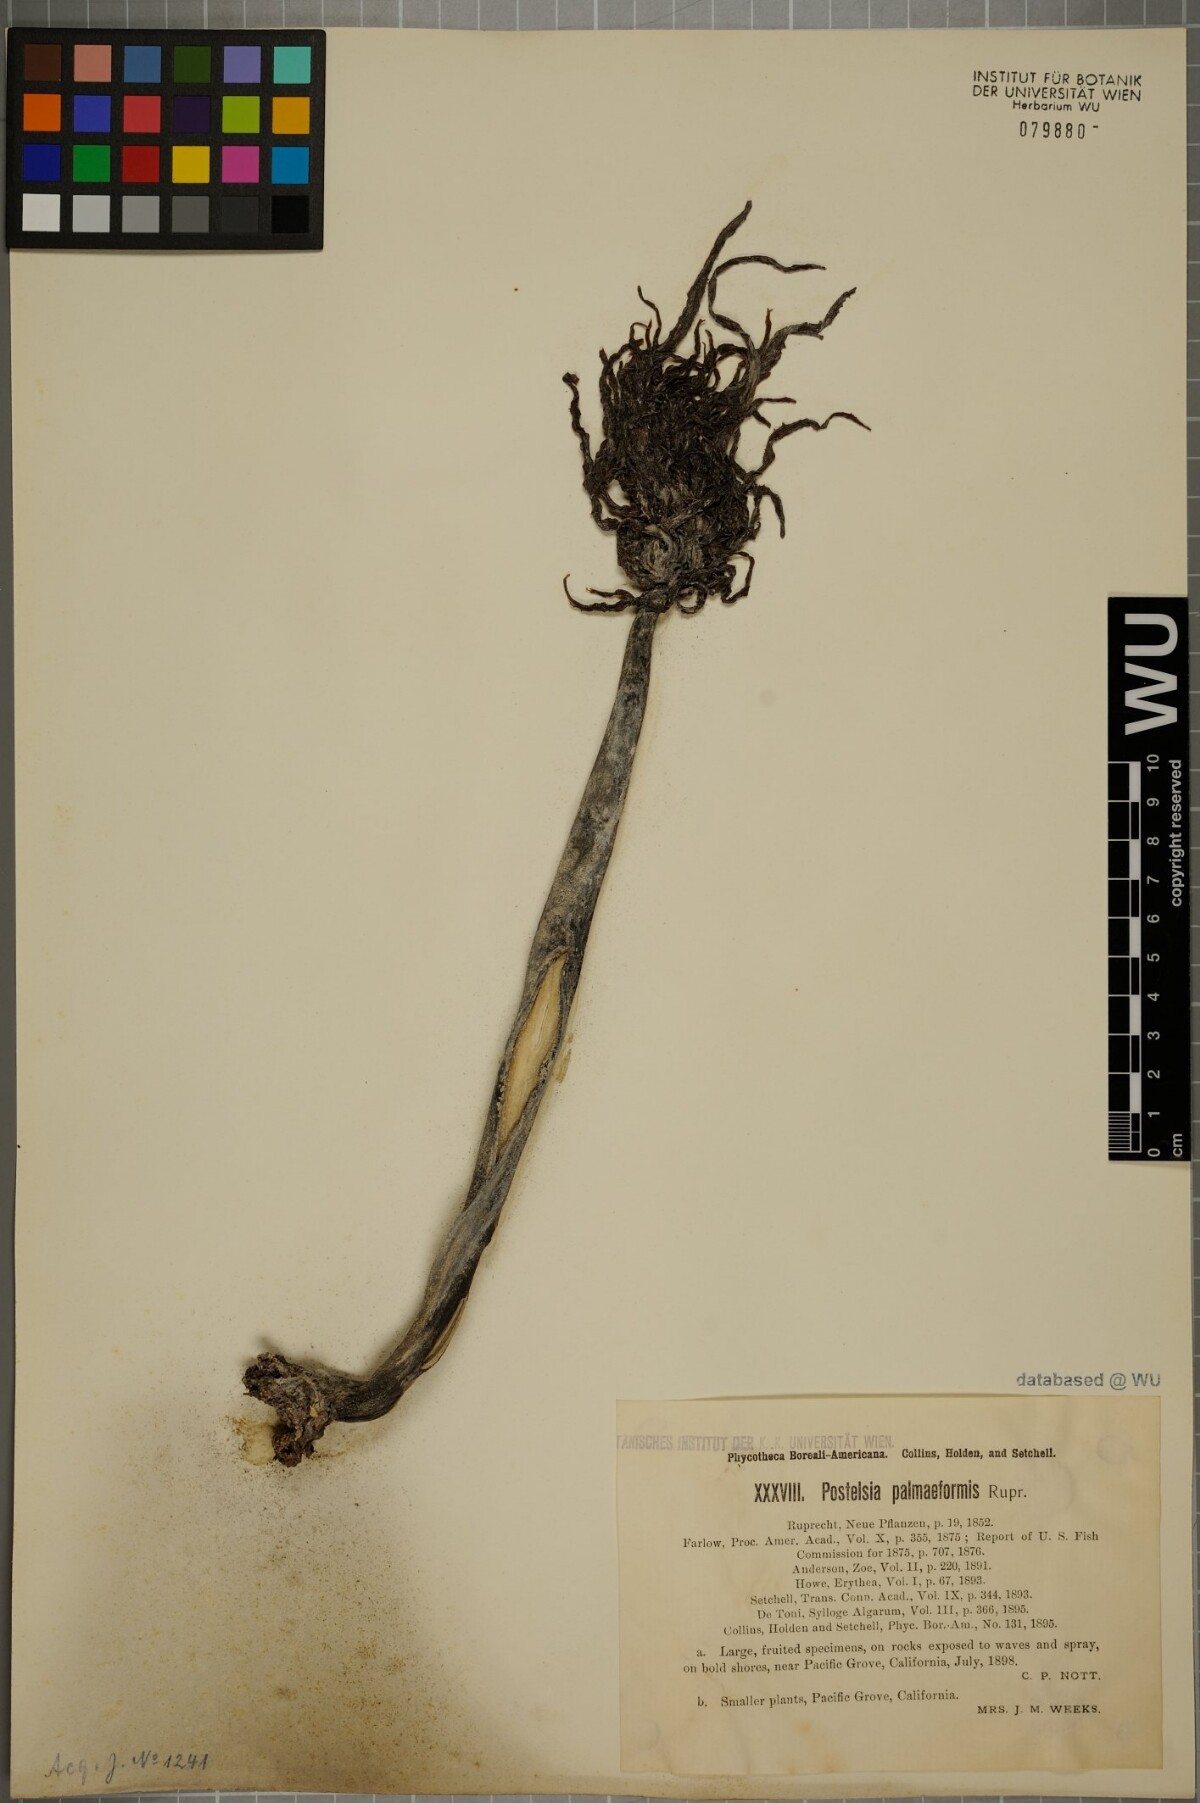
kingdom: Chromista
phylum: Ochrophyta
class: Phaeophyceae
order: Laminariales
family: Laminariaceae
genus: Postelsia
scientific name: Postelsia palmaeformis
